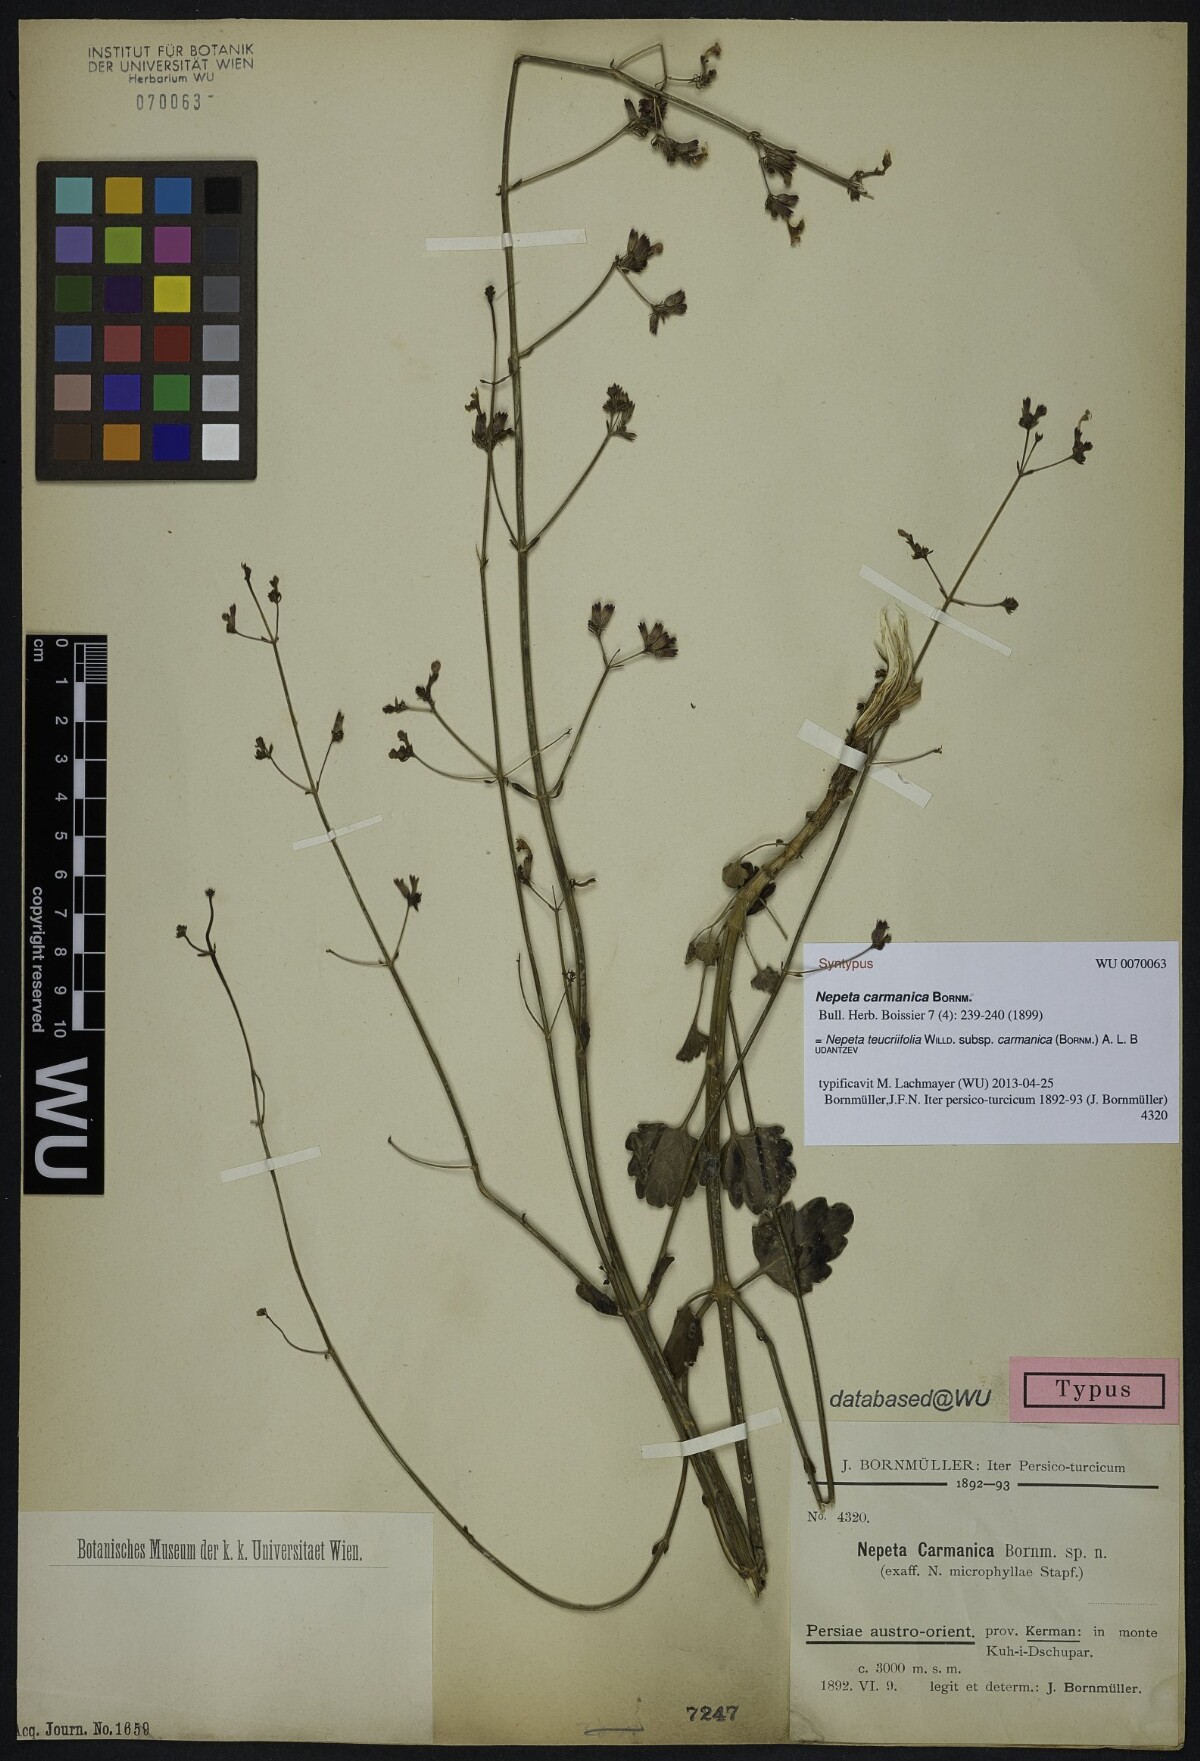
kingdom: Plantae
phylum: Tracheophyta
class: Magnoliopsida
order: Lamiales
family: Lamiaceae
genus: Nepeta
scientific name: Nepeta teucriifolia
